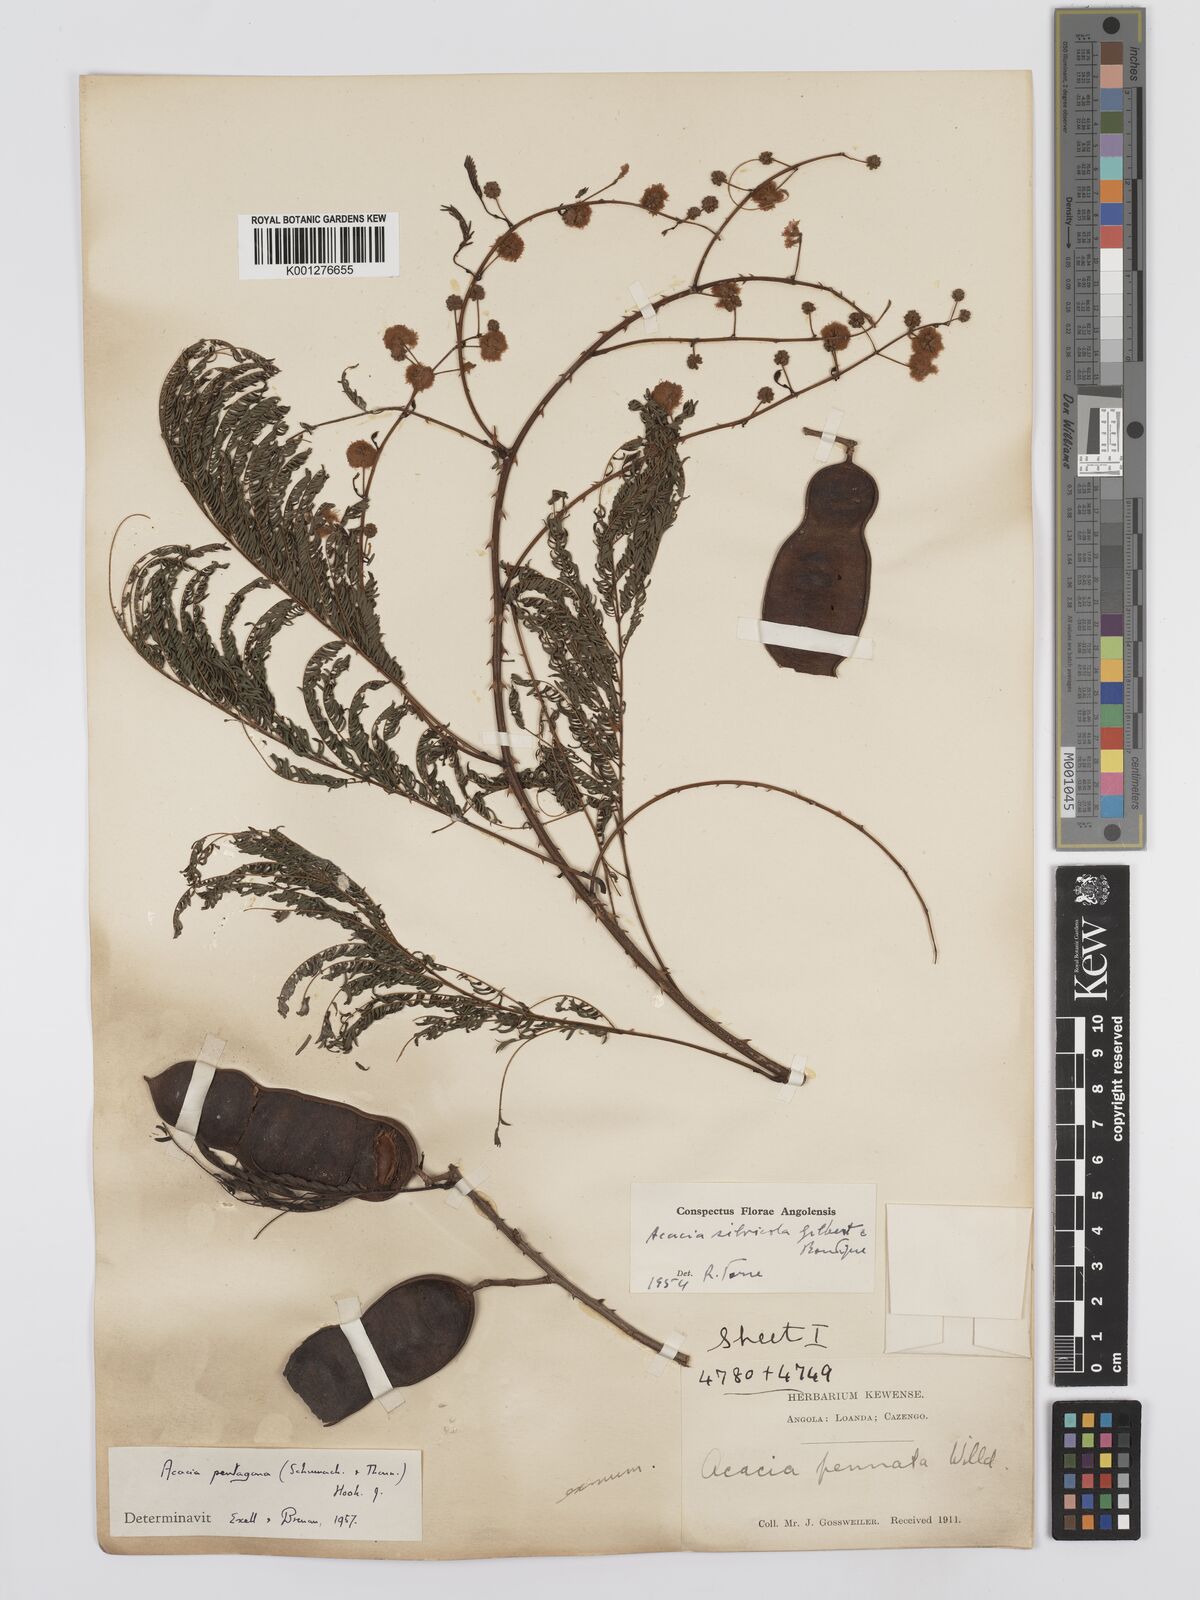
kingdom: Plantae
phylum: Tracheophyta
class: Magnoliopsida
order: Fabales
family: Fabaceae
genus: Senegalia
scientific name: Senegalia pentagona
